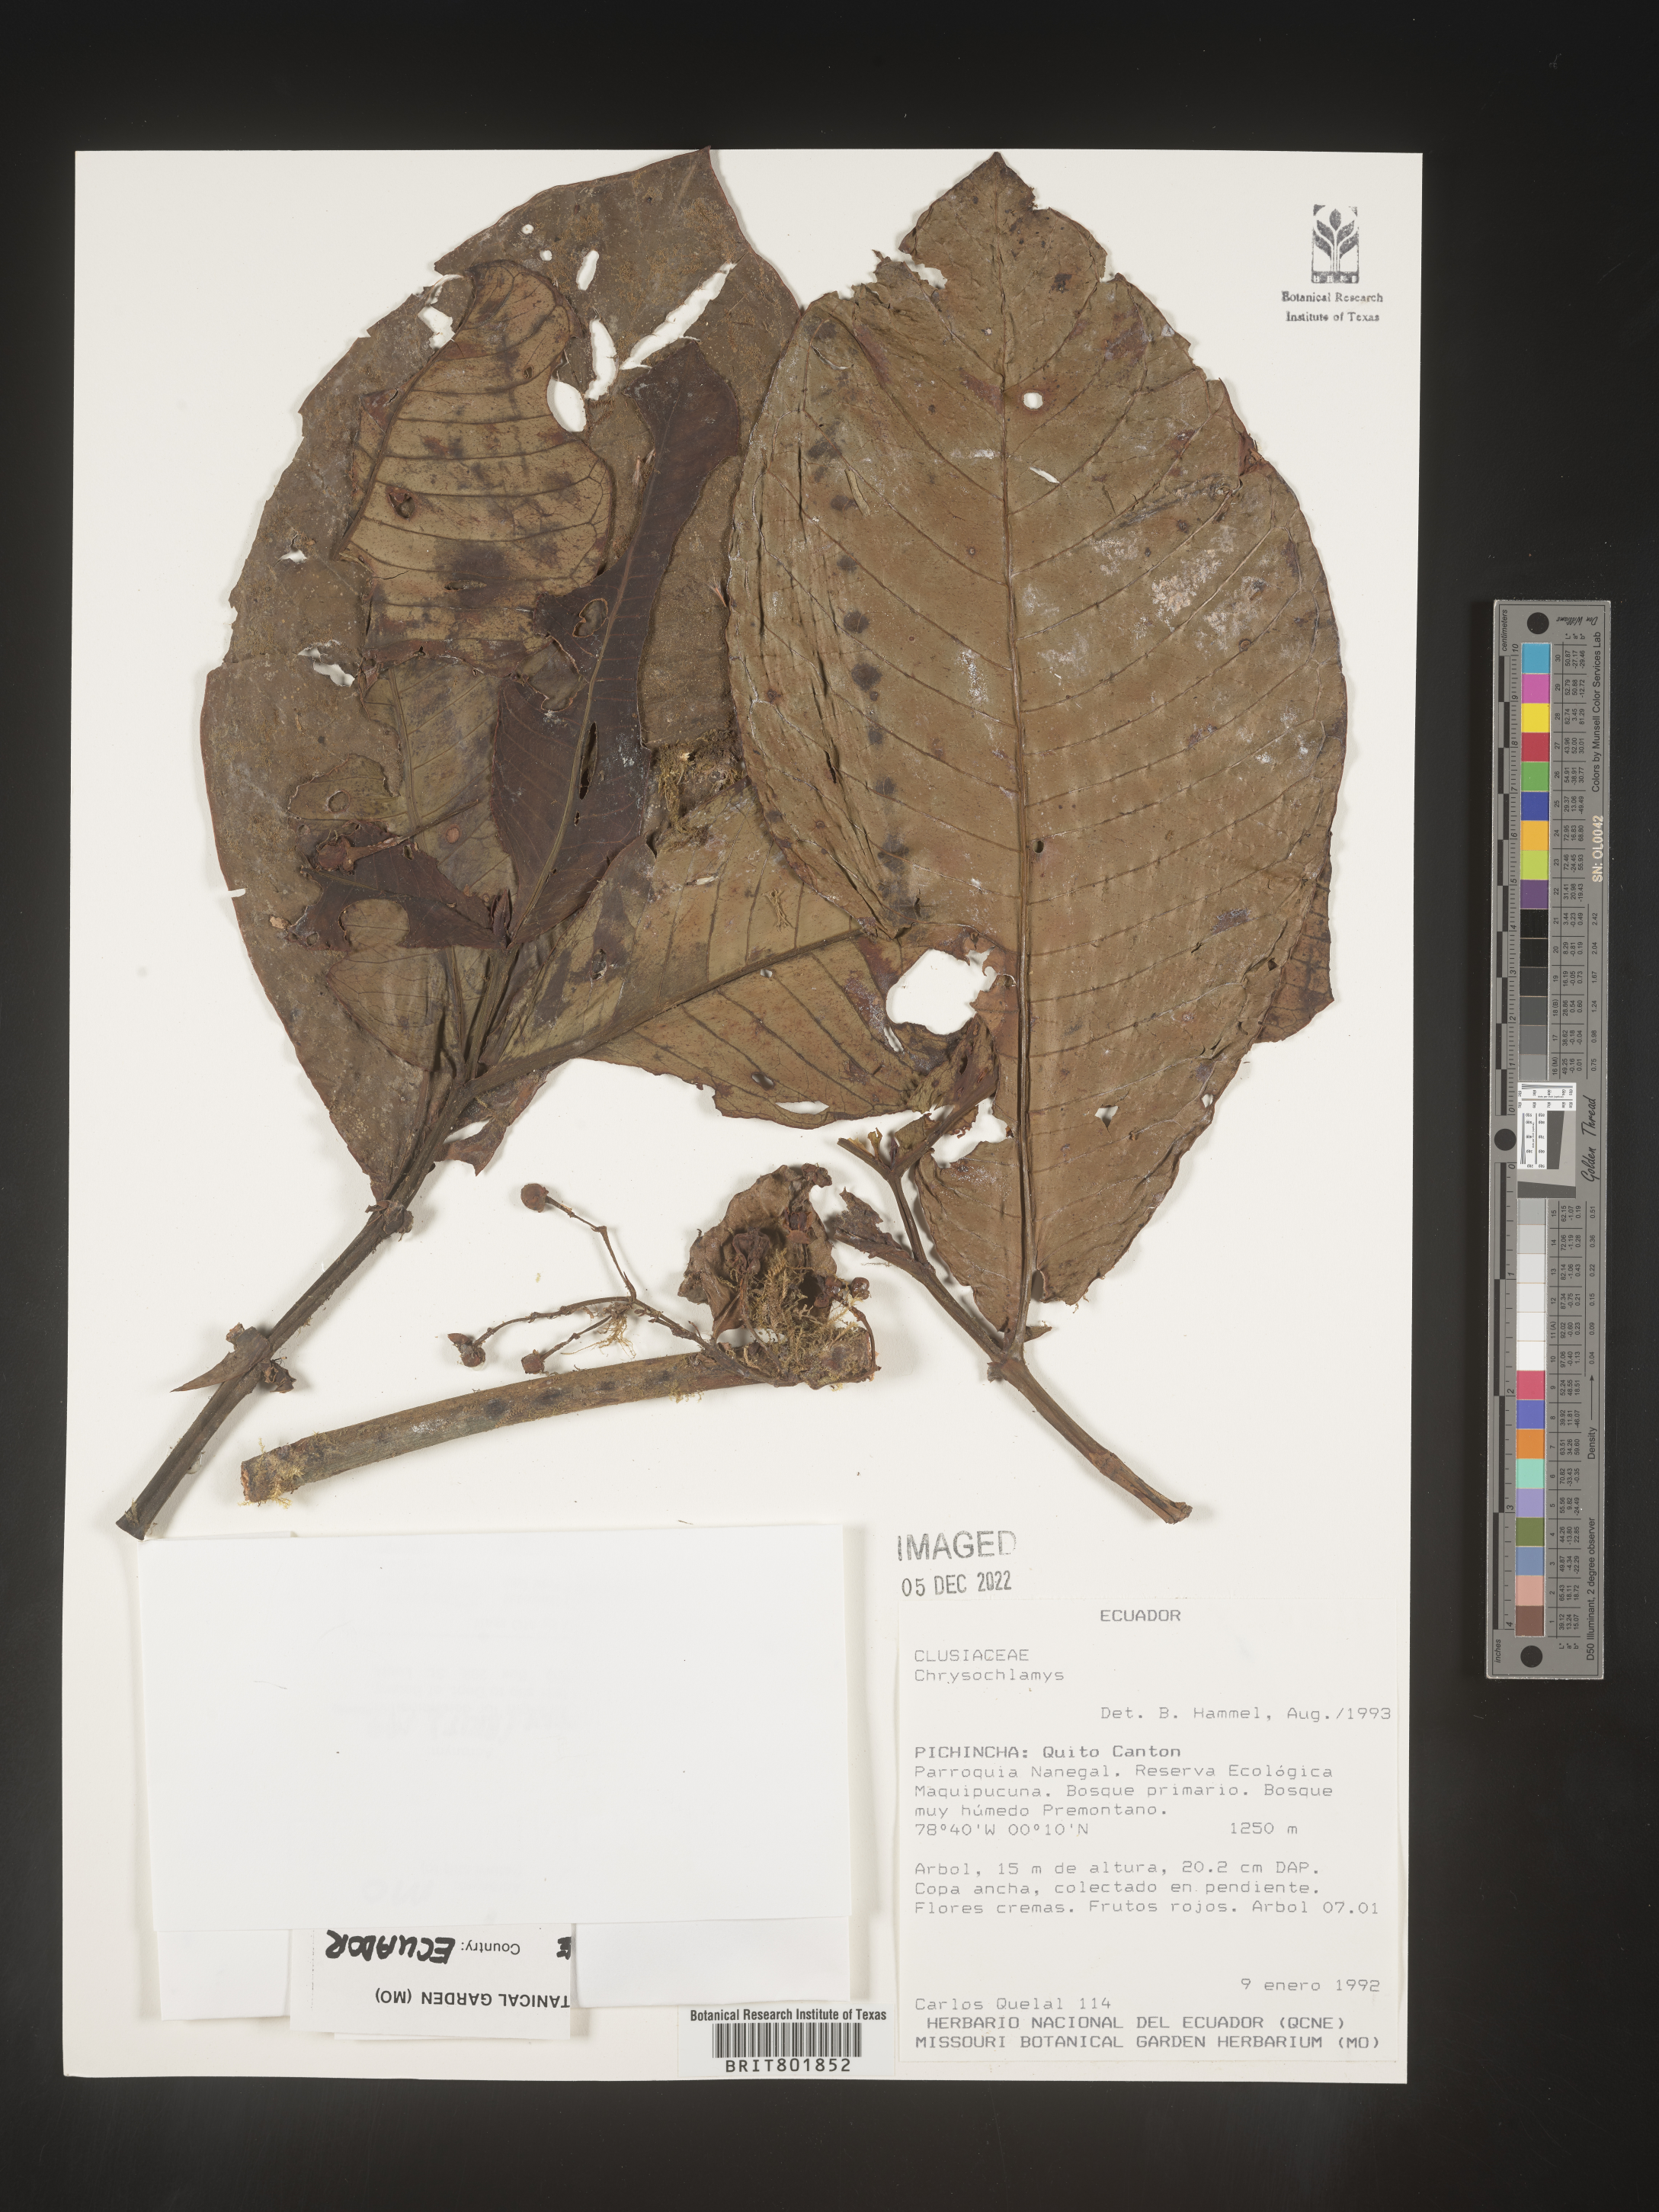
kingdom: Plantae
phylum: Tracheophyta
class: Magnoliopsida
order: Malpighiales
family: Clusiaceae
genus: Chrysochlamys
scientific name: Chrysochlamys
